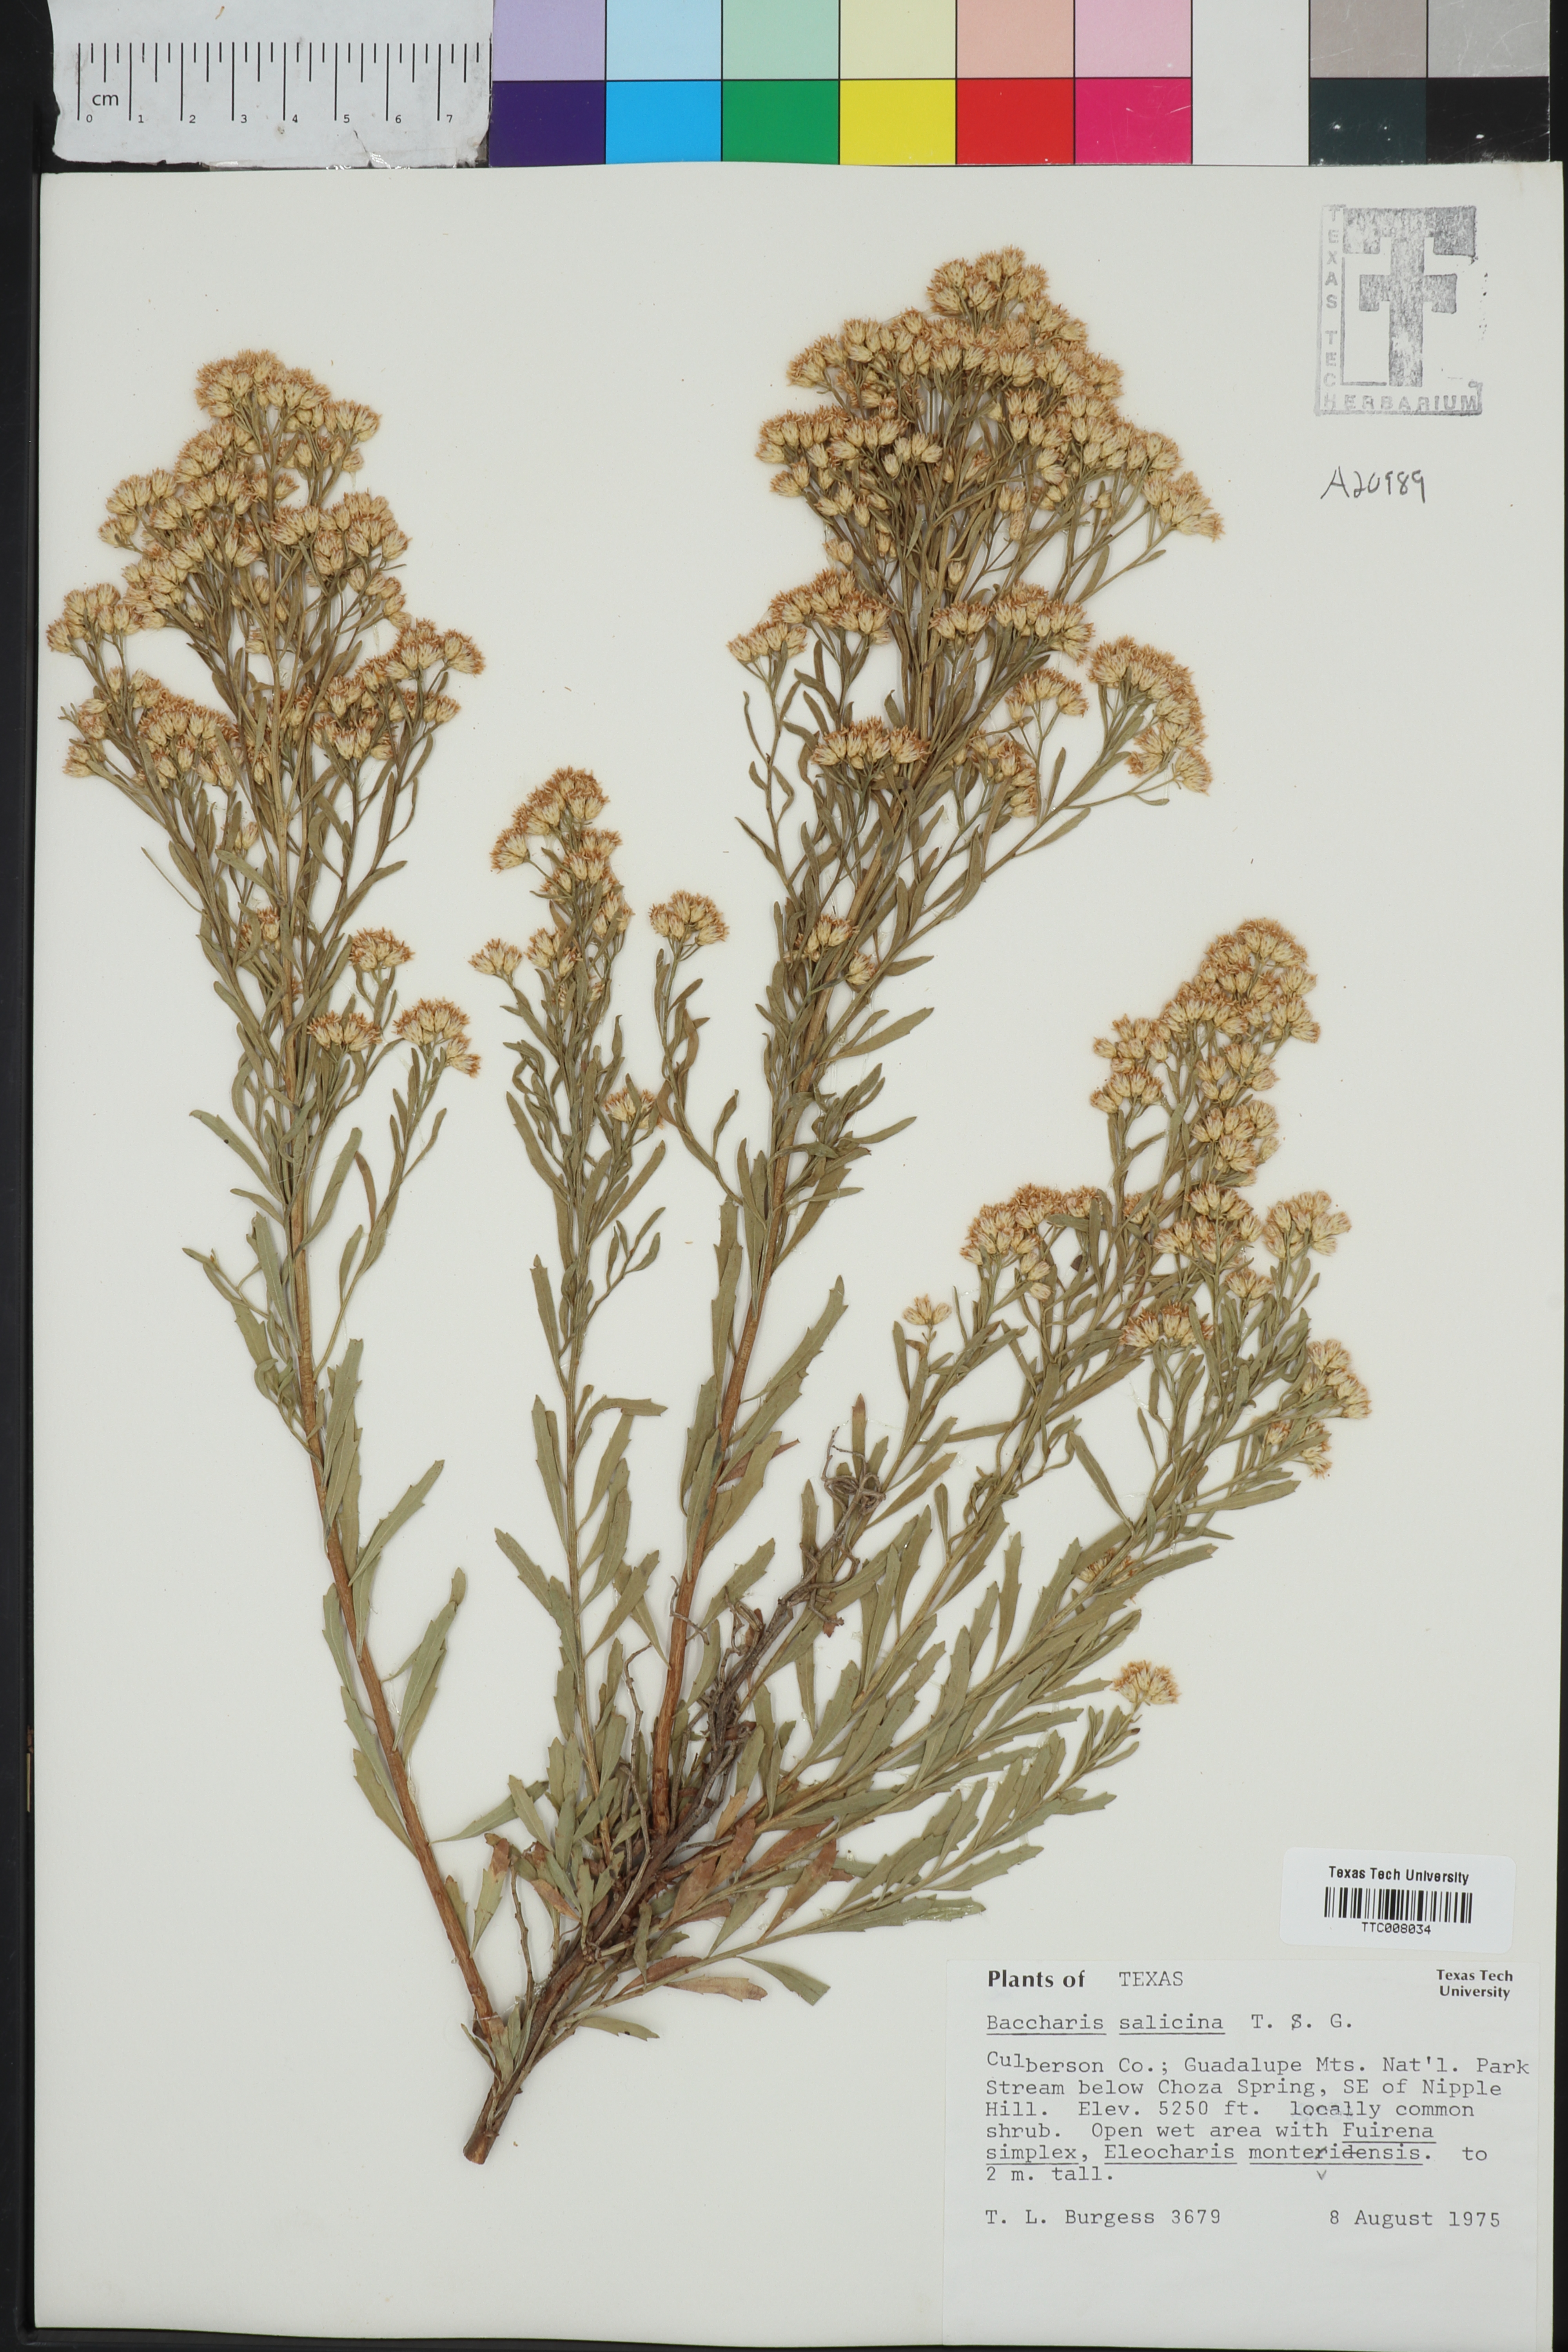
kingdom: Plantae
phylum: Tracheophyta
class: Magnoliopsida
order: Asterales
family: Asteraceae
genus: Baccharis
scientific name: Baccharis salicina
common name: Willow baccharis
